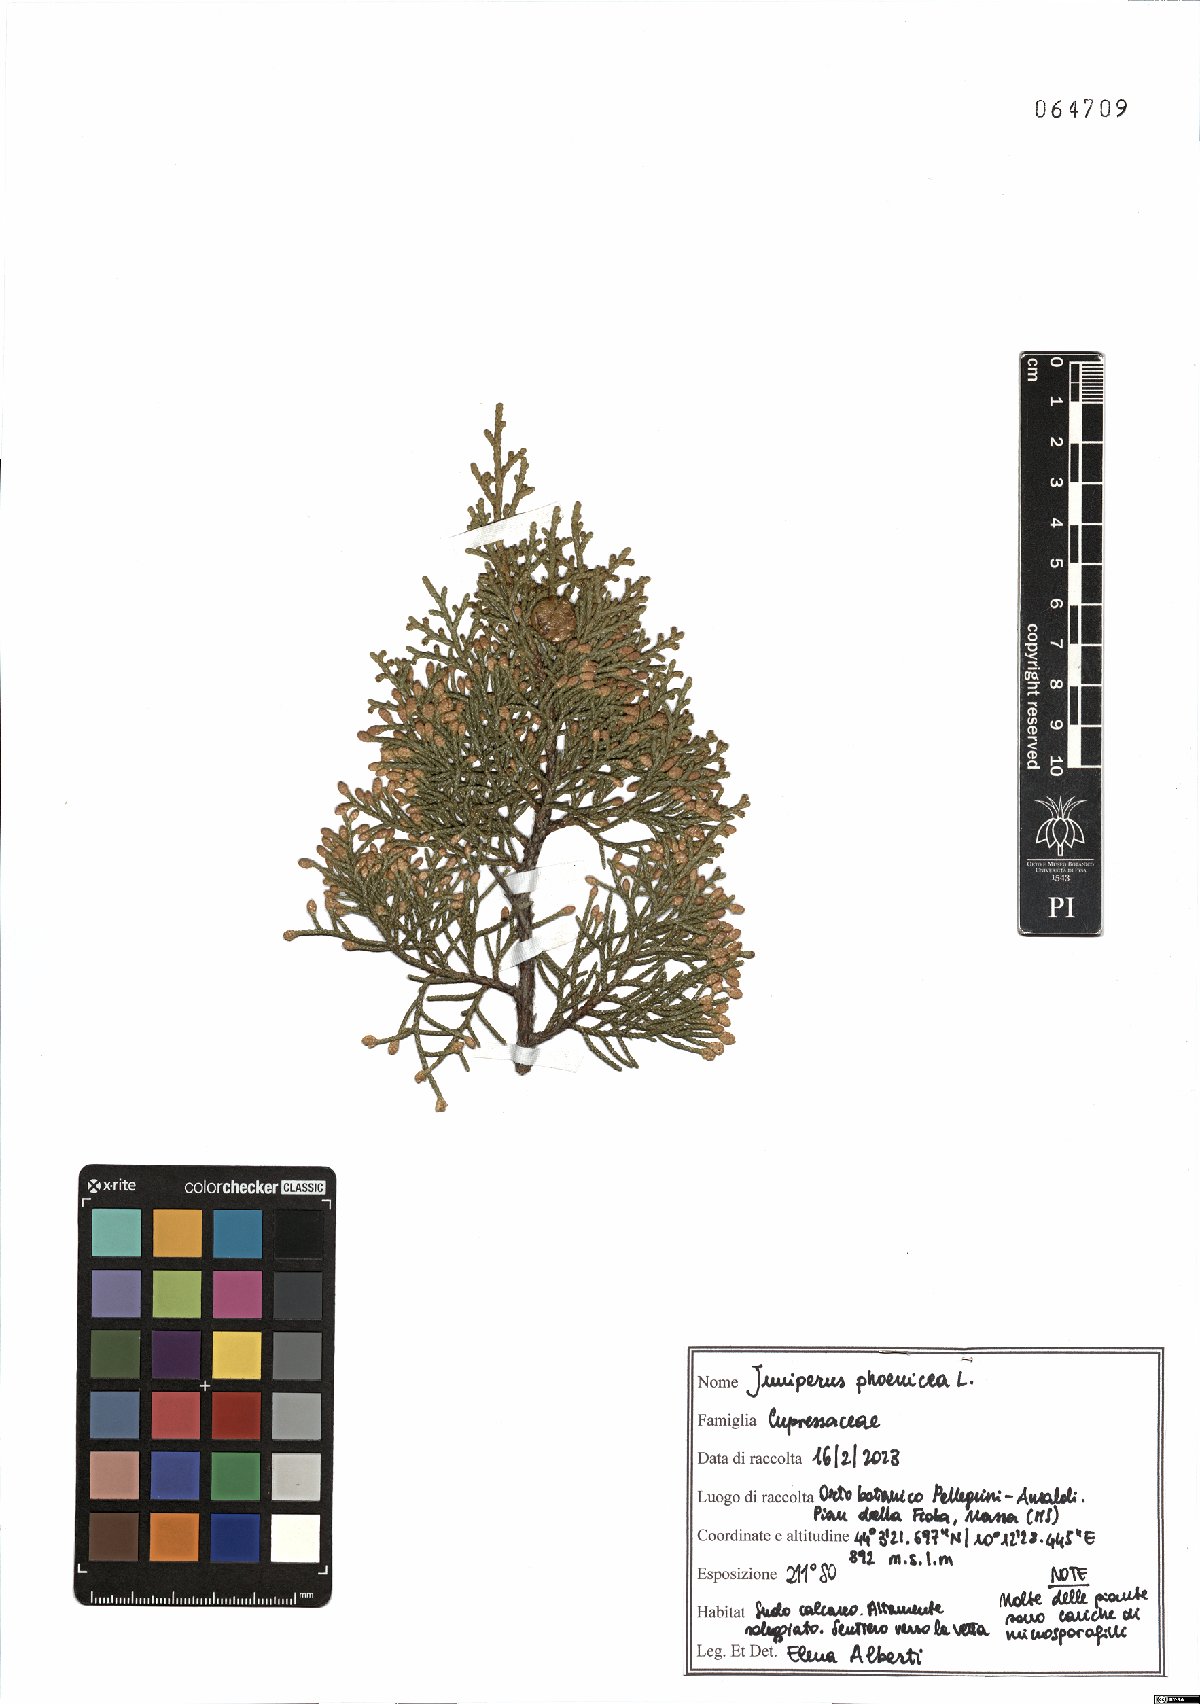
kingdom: Plantae
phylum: Tracheophyta
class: Pinopsida
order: Pinales
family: Cupressaceae
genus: Juniperus
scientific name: Juniperus phoenicea
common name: Phoenician juniper
